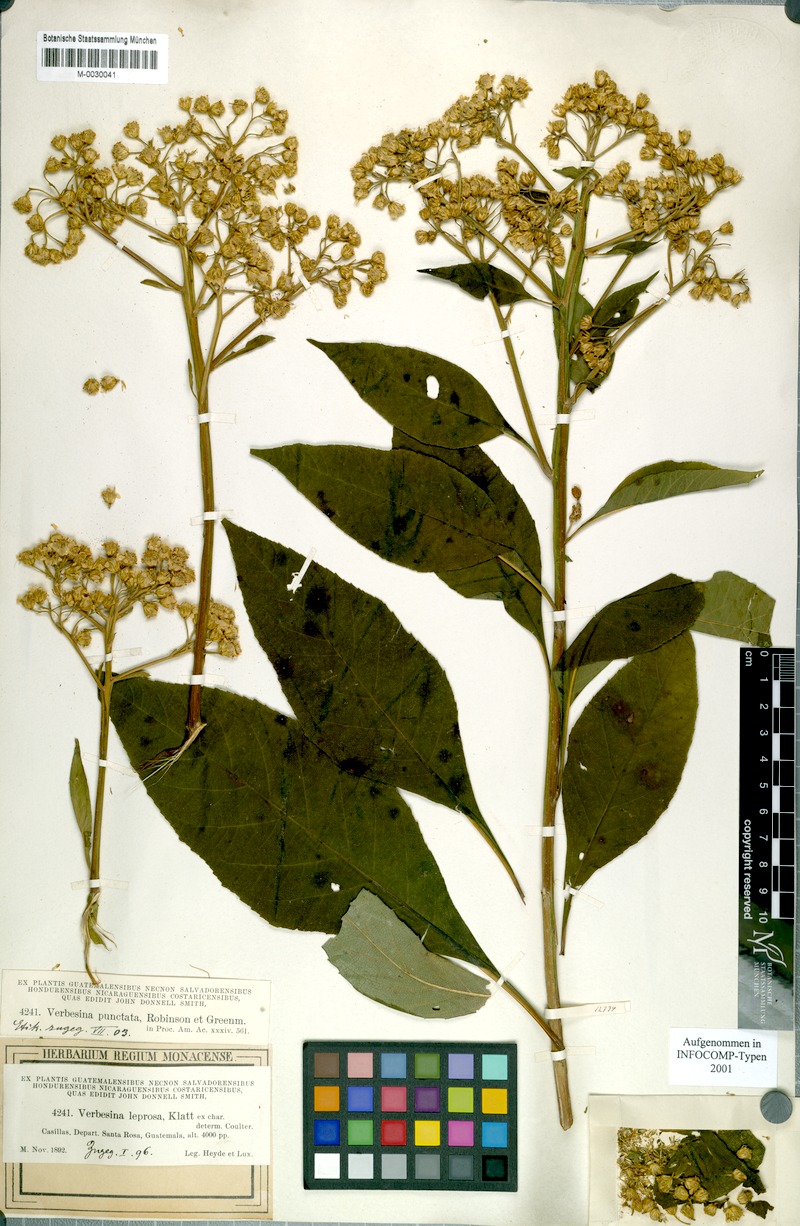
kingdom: Plantae
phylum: Tracheophyta
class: Magnoliopsida
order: Asterales
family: Asteraceae
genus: Verbesina
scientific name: Verbesina pallens
